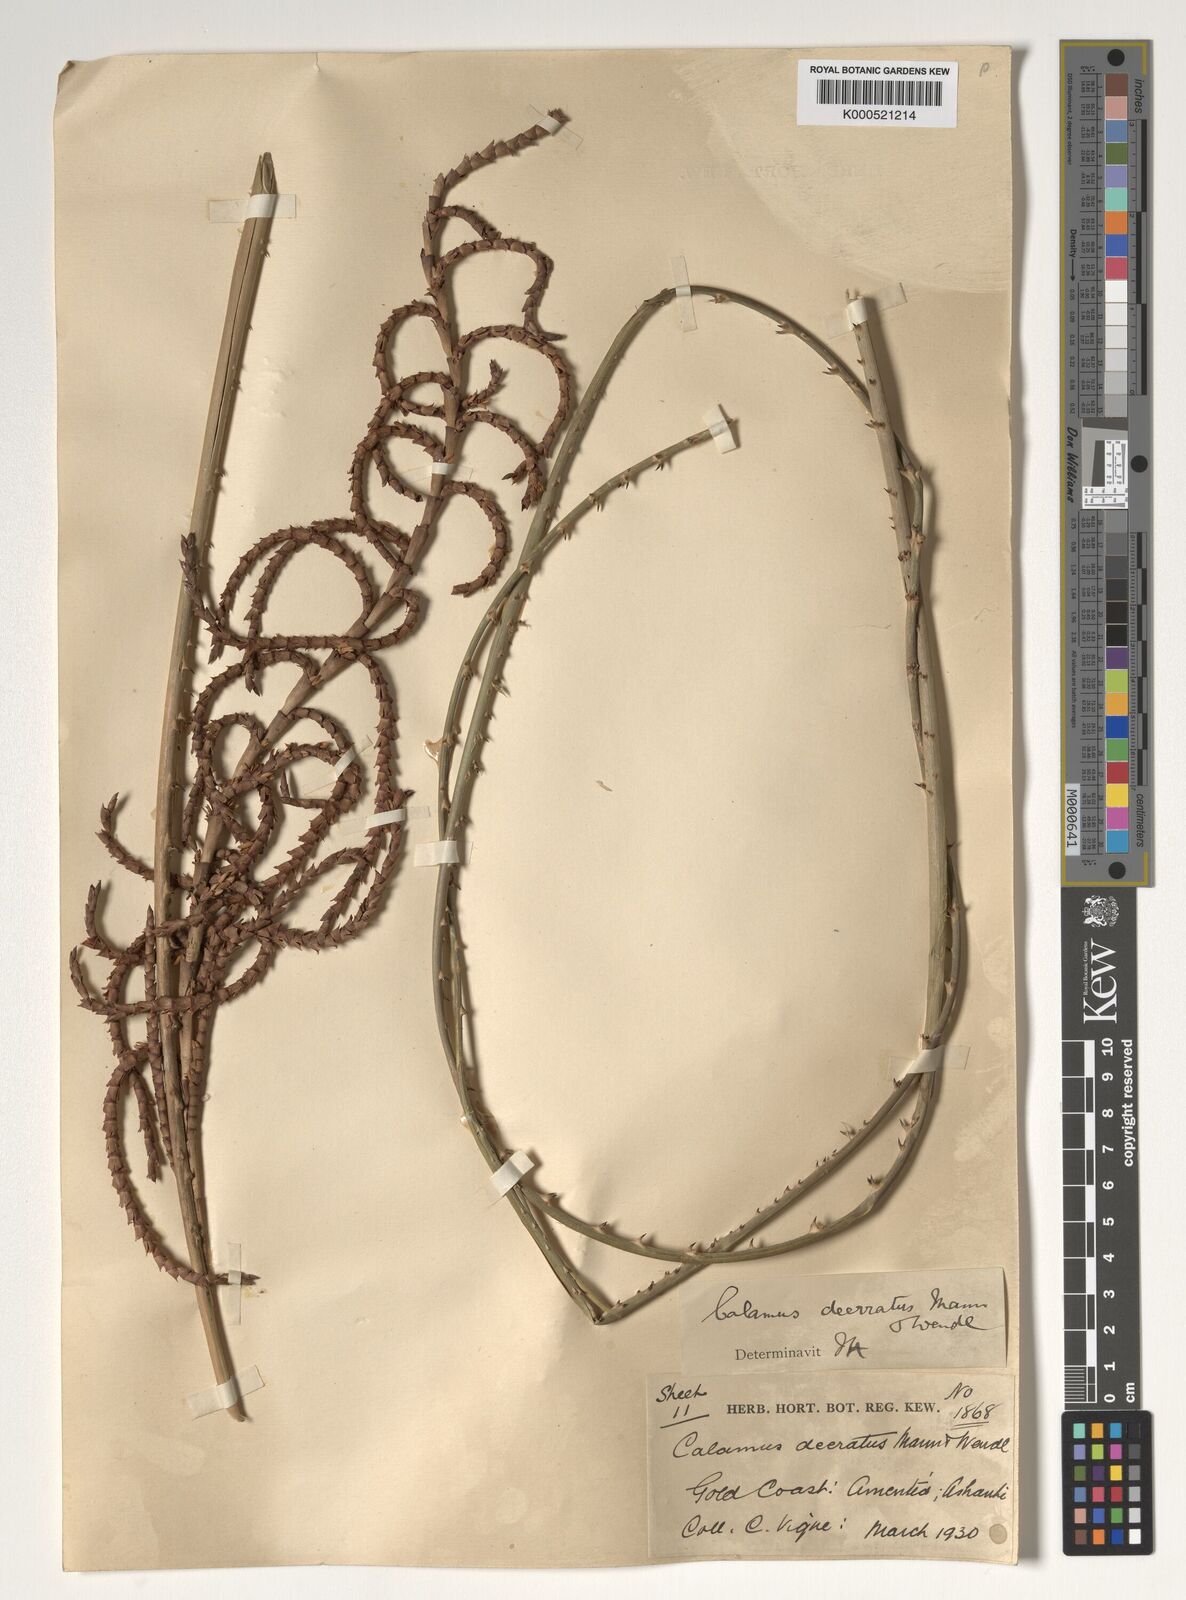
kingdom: Plantae
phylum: Tracheophyta
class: Liliopsida
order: Arecales
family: Arecaceae
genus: Calamus
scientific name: Calamus deerratus
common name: Rattan
